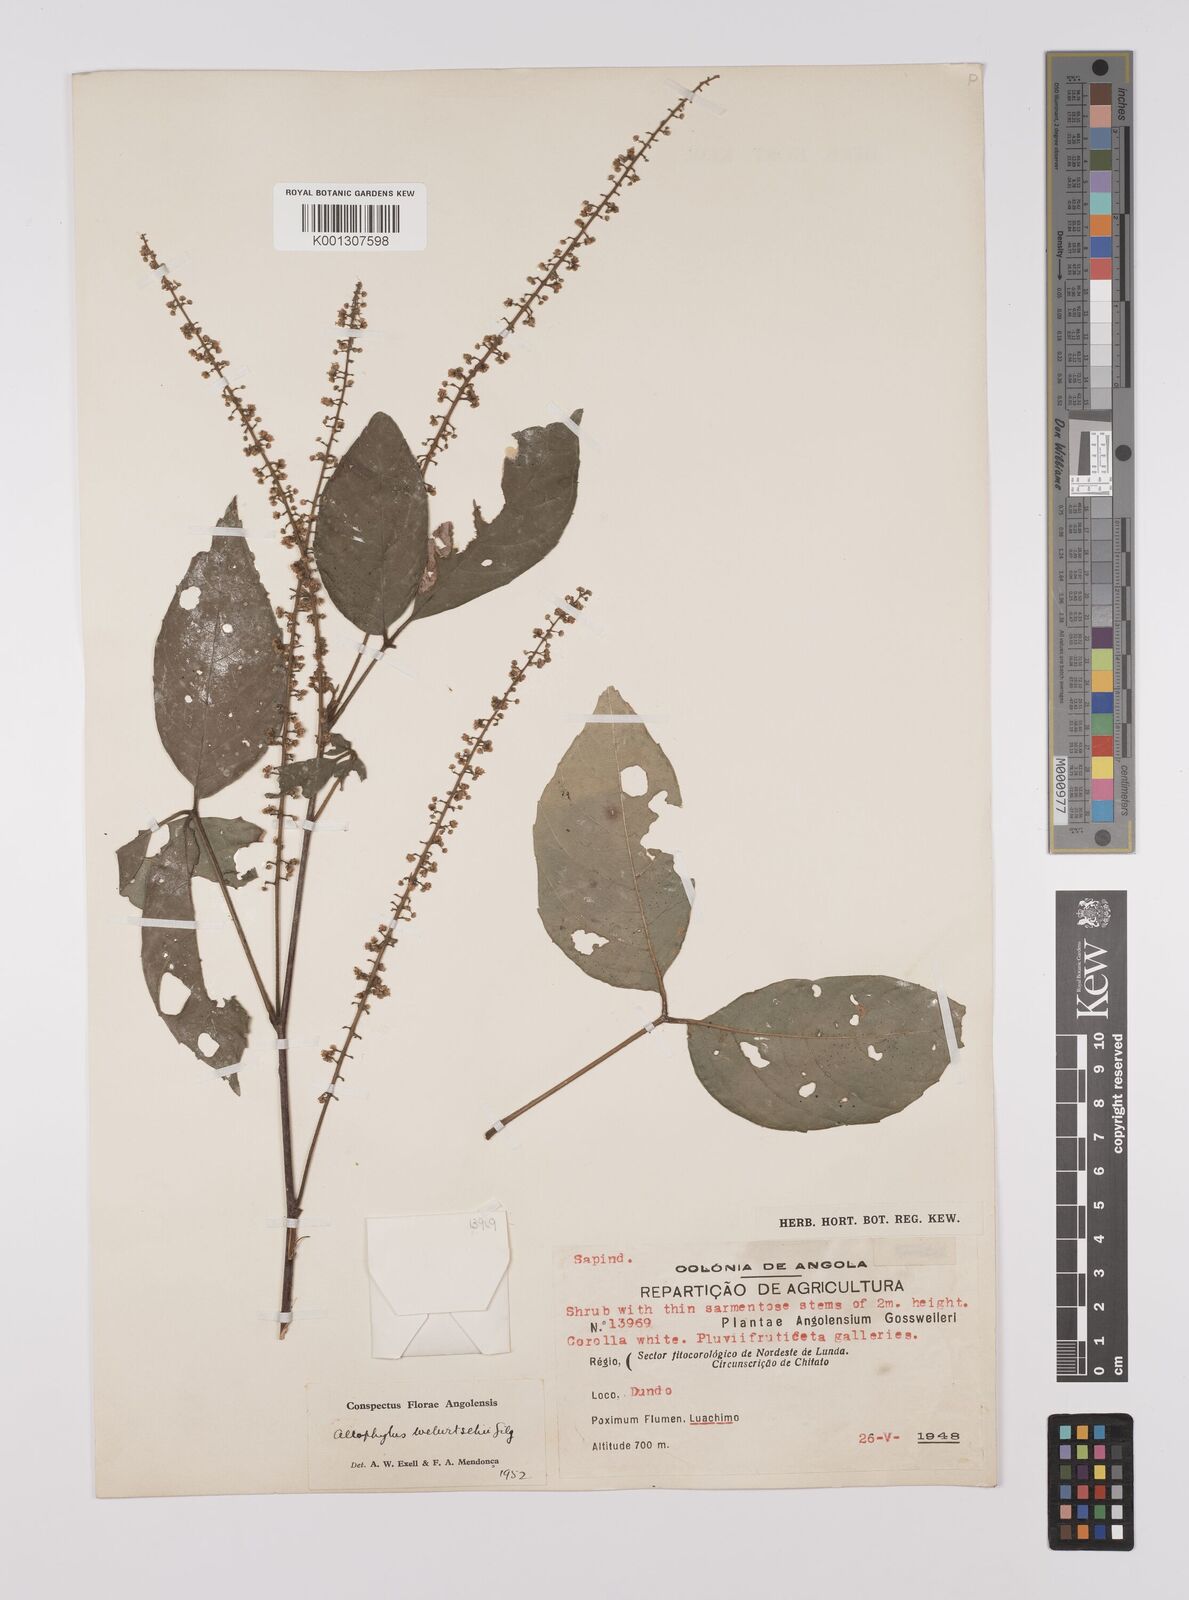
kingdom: Plantae
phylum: Tracheophyta
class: Magnoliopsida
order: Sapindales
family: Sapindaceae
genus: Allophylus
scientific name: Allophylus welwitschii
